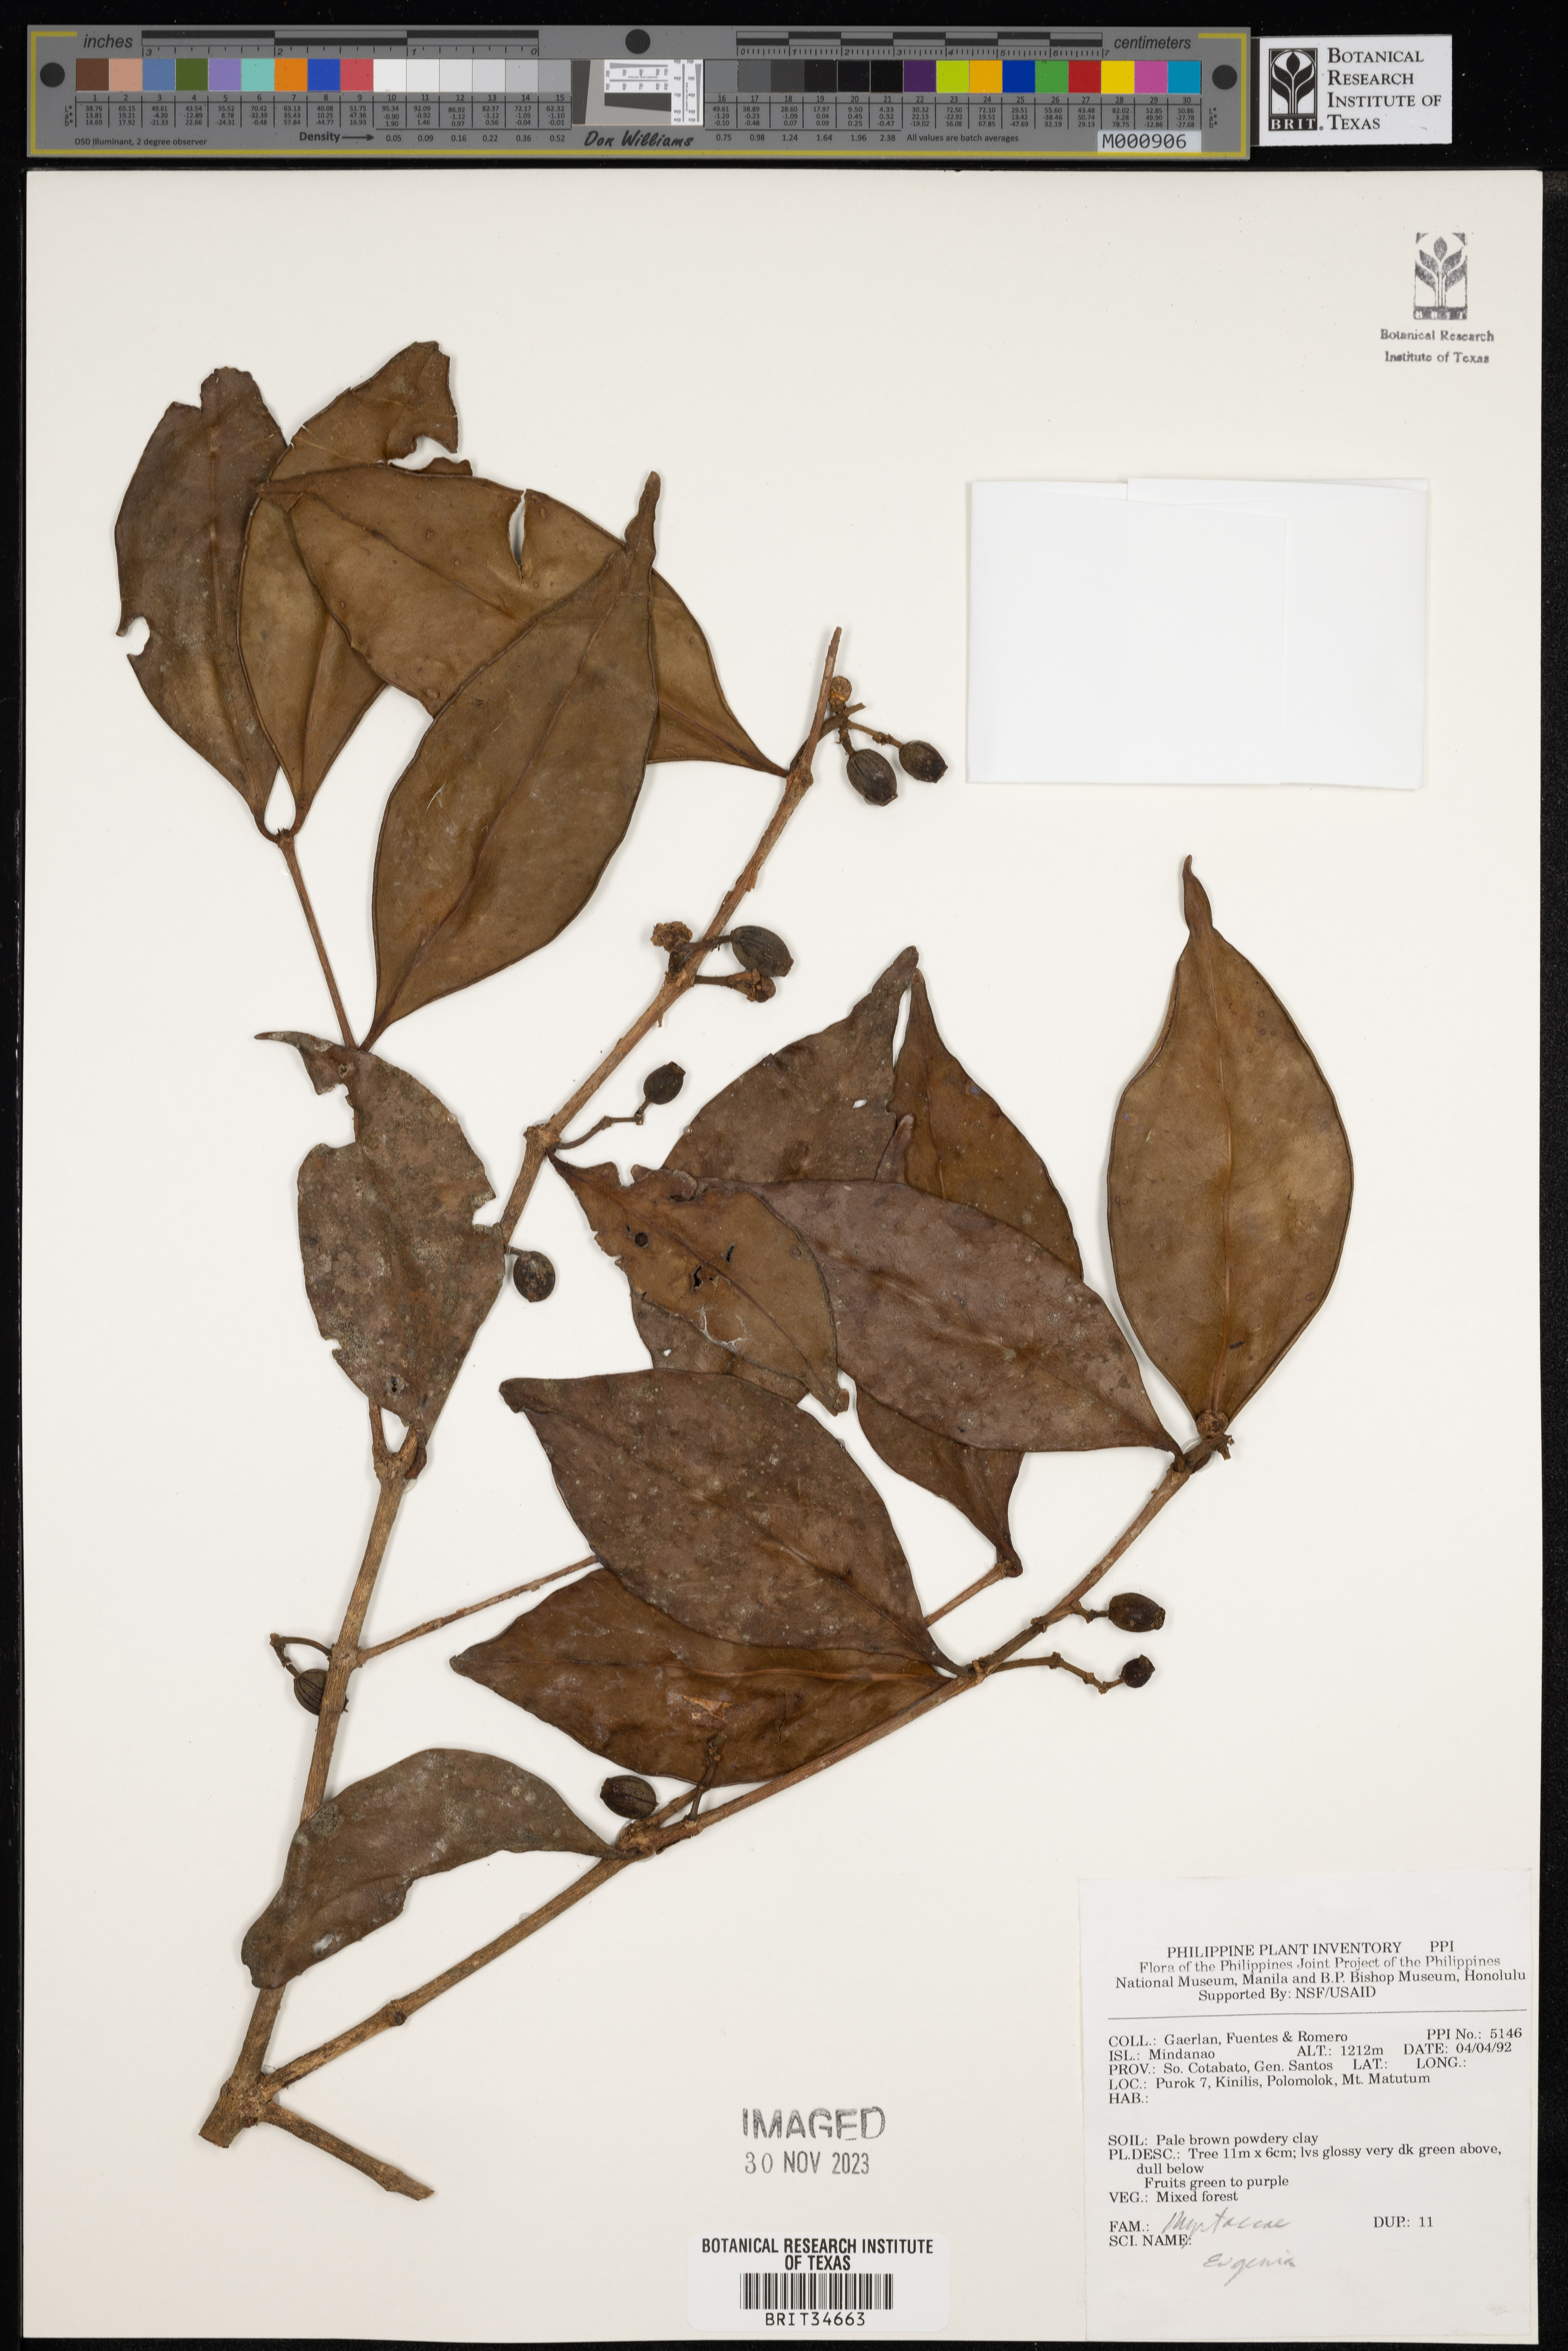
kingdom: Plantae
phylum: Tracheophyta
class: Magnoliopsida
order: Myrtales
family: Myrtaceae
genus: Eugenia
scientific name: Eugenia
